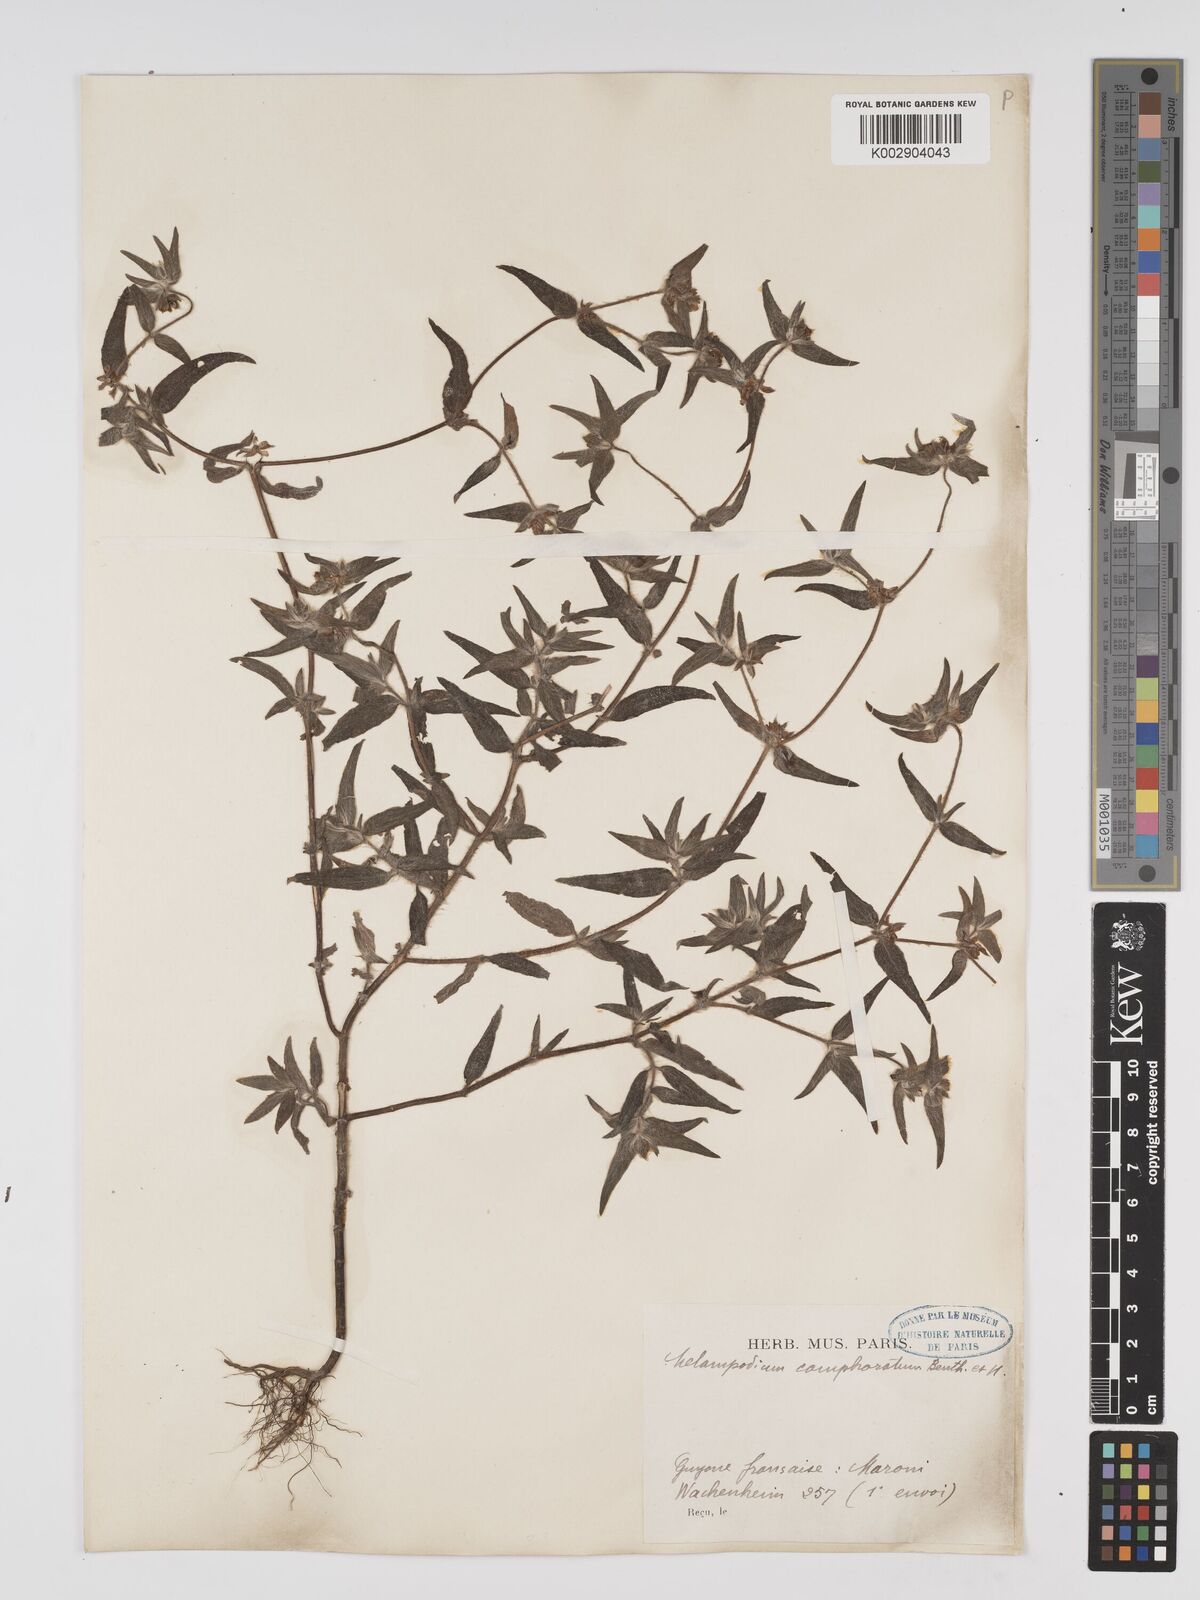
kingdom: Plantae
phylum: Tracheophyta
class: Magnoliopsida
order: Asterales
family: Asteraceae
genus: Unxia
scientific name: Unxia camphorata
